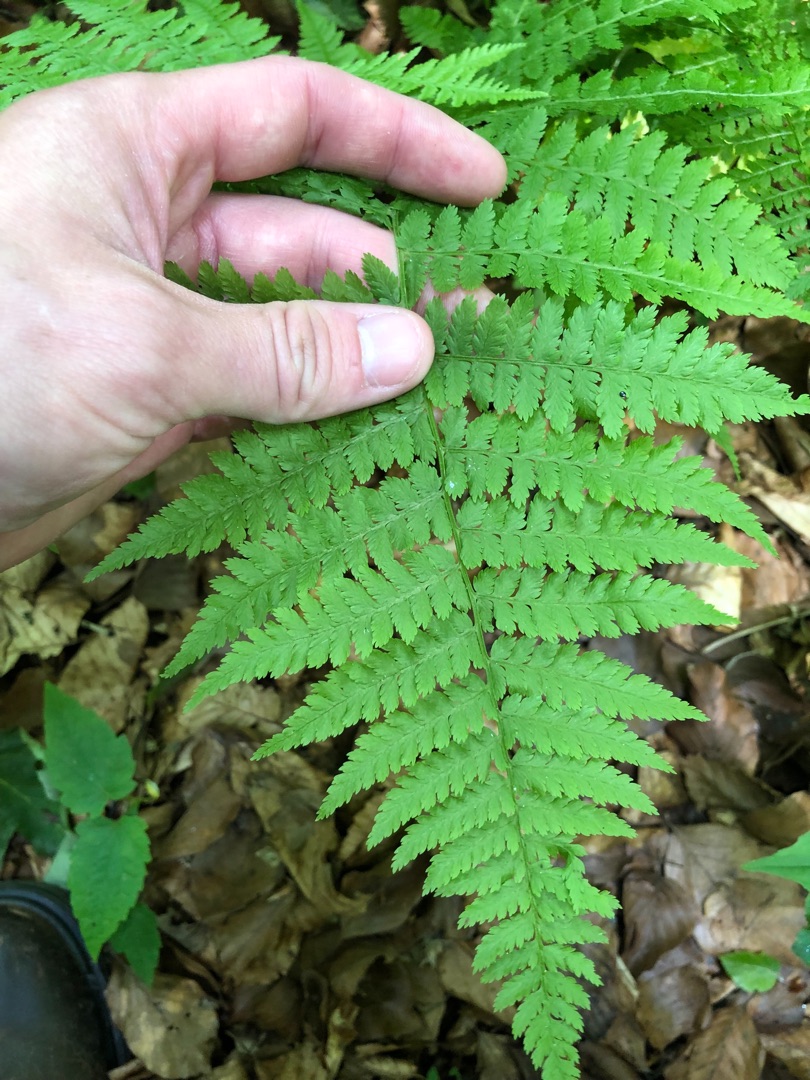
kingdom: Plantae
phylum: Tracheophyta
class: Polypodiopsida
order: Polypodiales
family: Dryopteridaceae
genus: Dryopteris
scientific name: Dryopteris dilatata
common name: Bredbladet mangeløv
